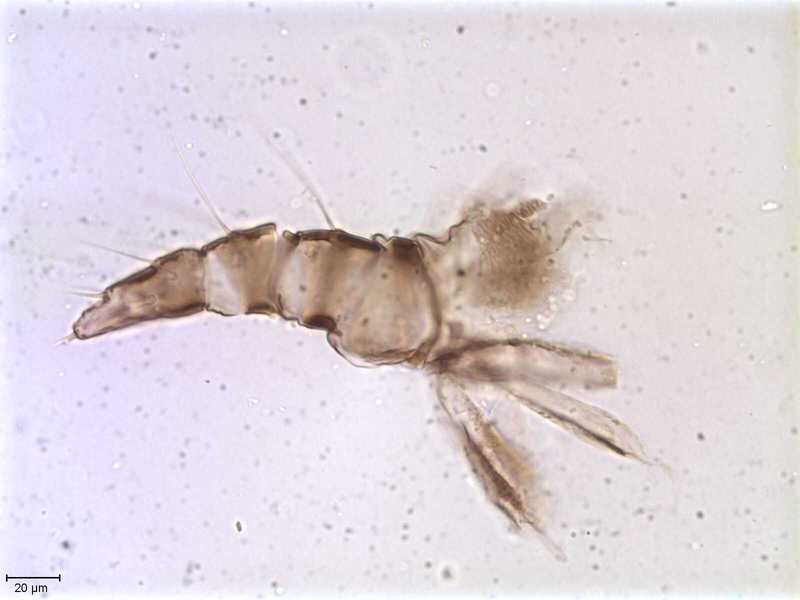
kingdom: Animalia
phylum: Arthropoda
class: Arachnida
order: Mesostigmata
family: Halarachnidae
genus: Orthohalarachne
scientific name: Orthohalarachne letalis
